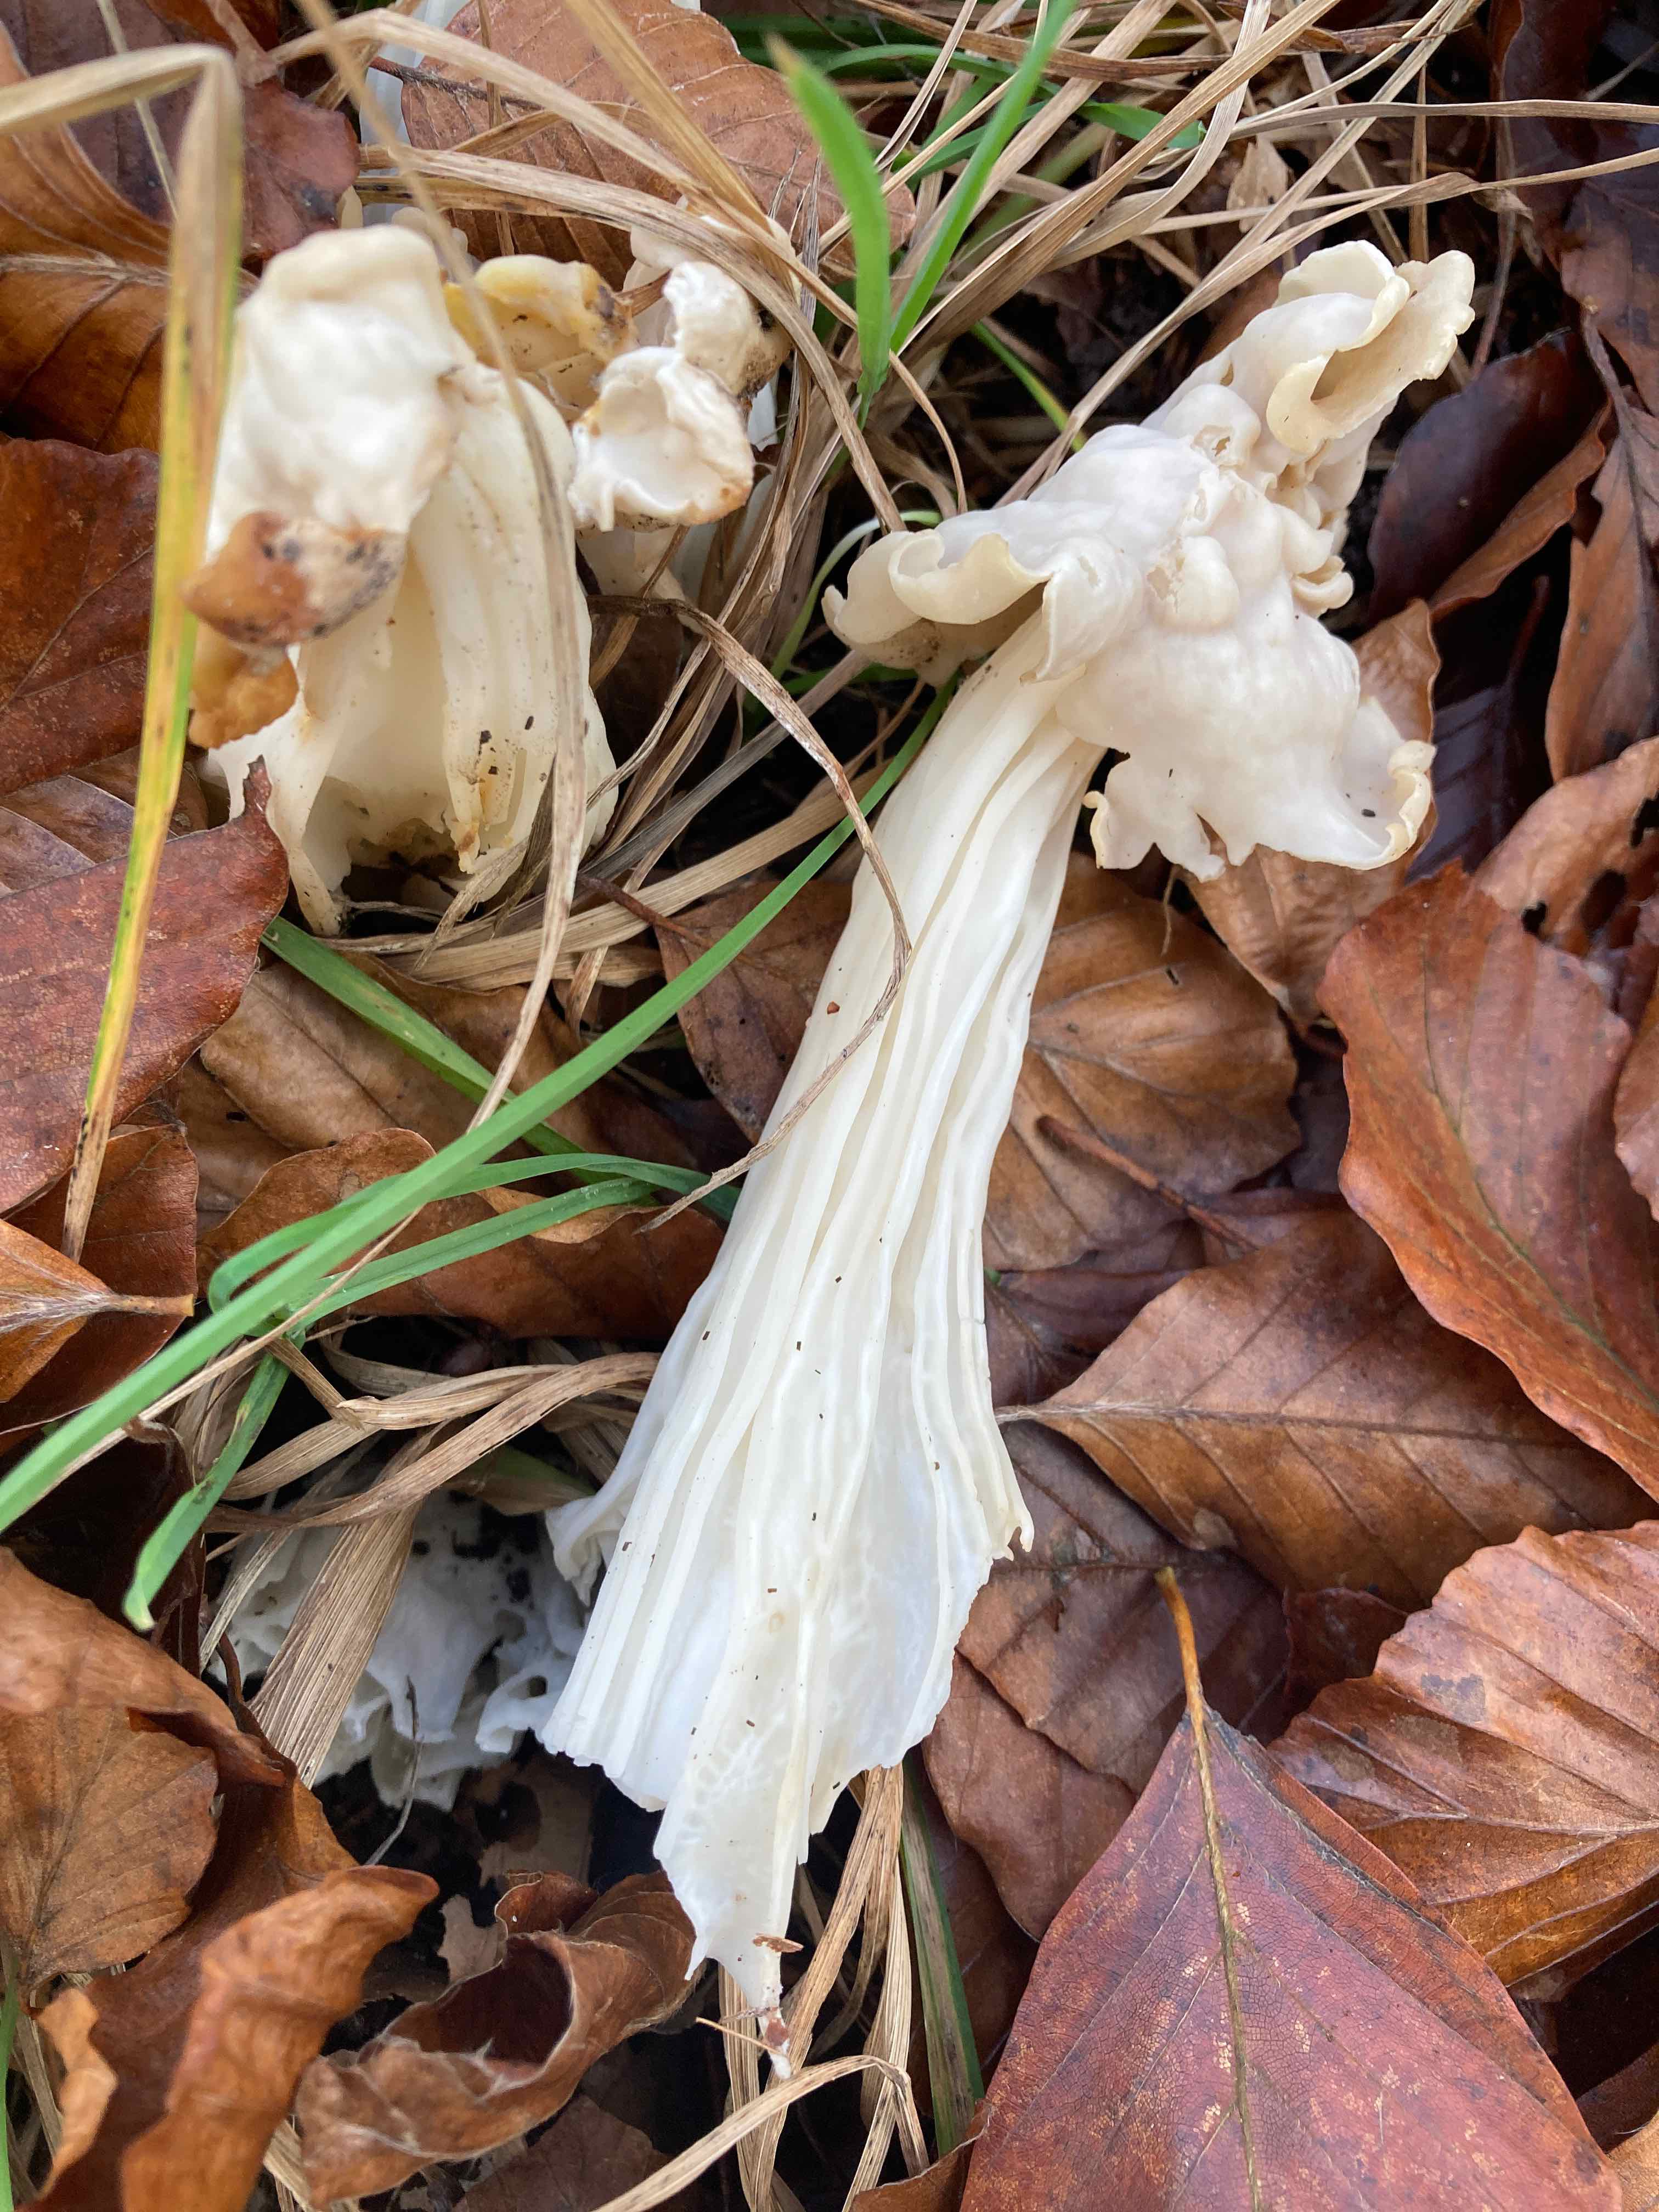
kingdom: Fungi
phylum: Ascomycota
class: Pezizomycetes
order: Pezizales
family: Helvellaceae
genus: Helvella
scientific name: Helvella crispa
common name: kruset foldhat
